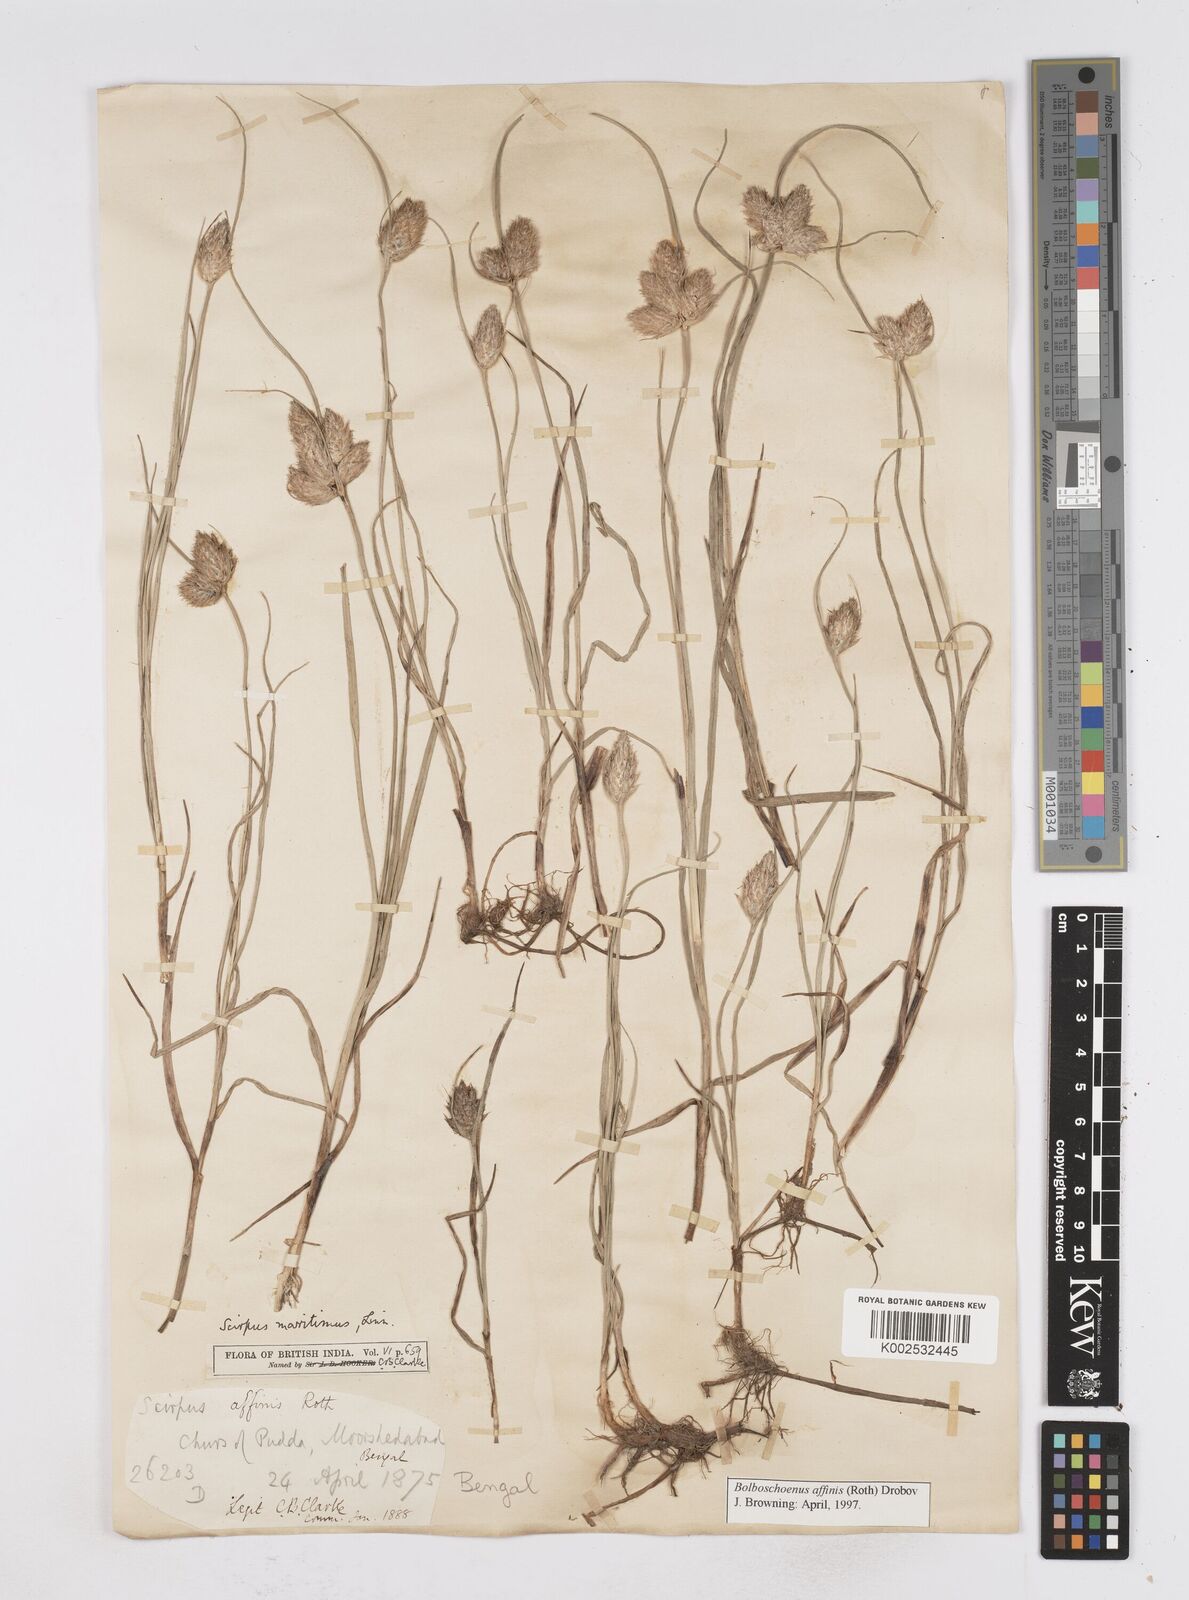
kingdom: Plantae
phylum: Tracheophyta
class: Liliopsida
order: Poales
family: Cyperaceae
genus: Bolboschoenus
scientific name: Bolboschoenus maritimus
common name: Sea club-rush
